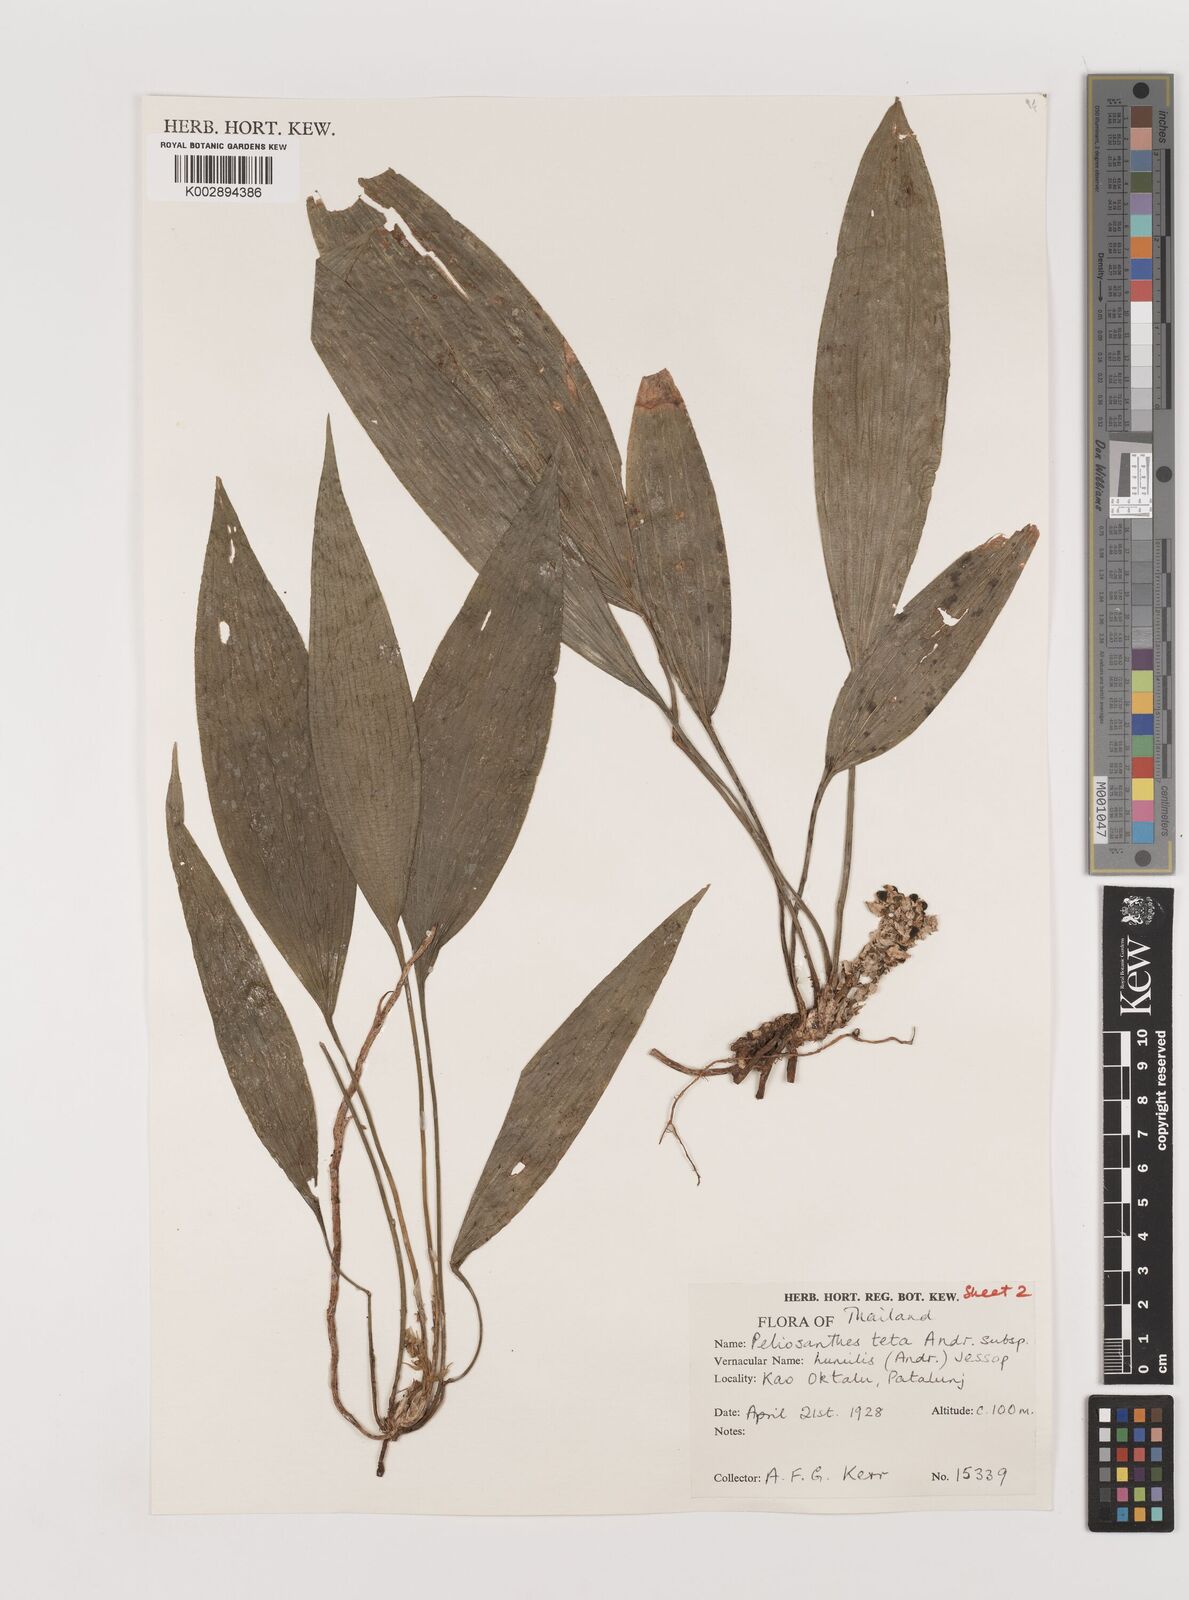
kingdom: Plantae
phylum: Tracheophyta
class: Liliopsida
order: Asparagales
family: Asparagaceae
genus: Peliosanthes
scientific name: Peliosanthes teta
